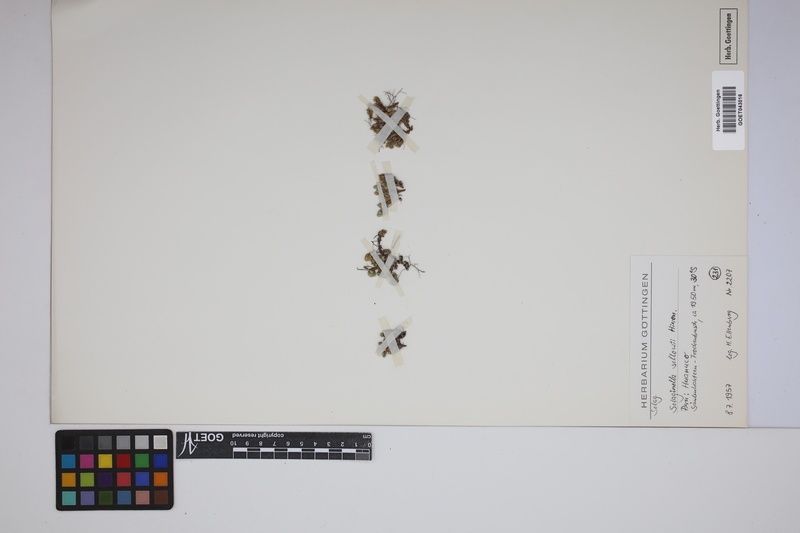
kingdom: Plantae
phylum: Tracheophyta
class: Lycopodiopsida
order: Selaginellales
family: Selaginellaceae
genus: Selaginella
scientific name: Selaginella sellowii
